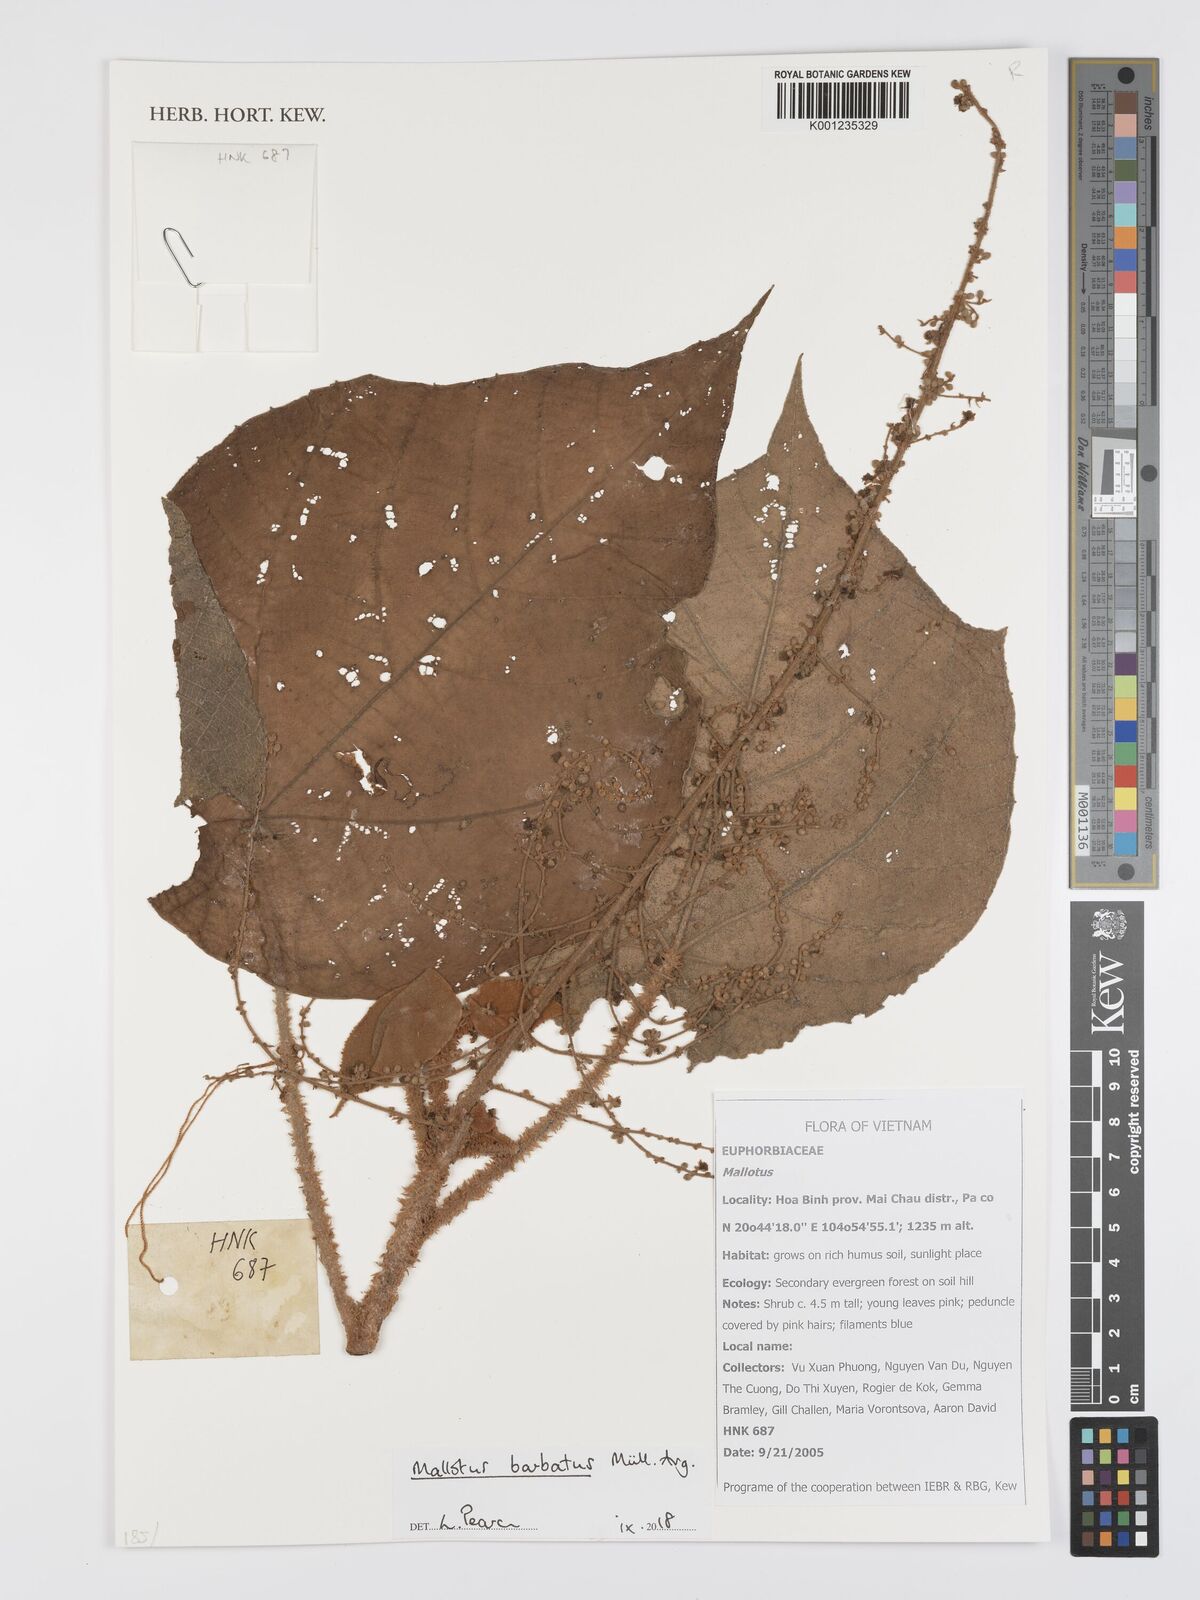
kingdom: Plantae
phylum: Tracheophyta
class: Magnoliopsida
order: Malpighiales
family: Euphorbiaceae
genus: Mallotus
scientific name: Mallotus barbatus
